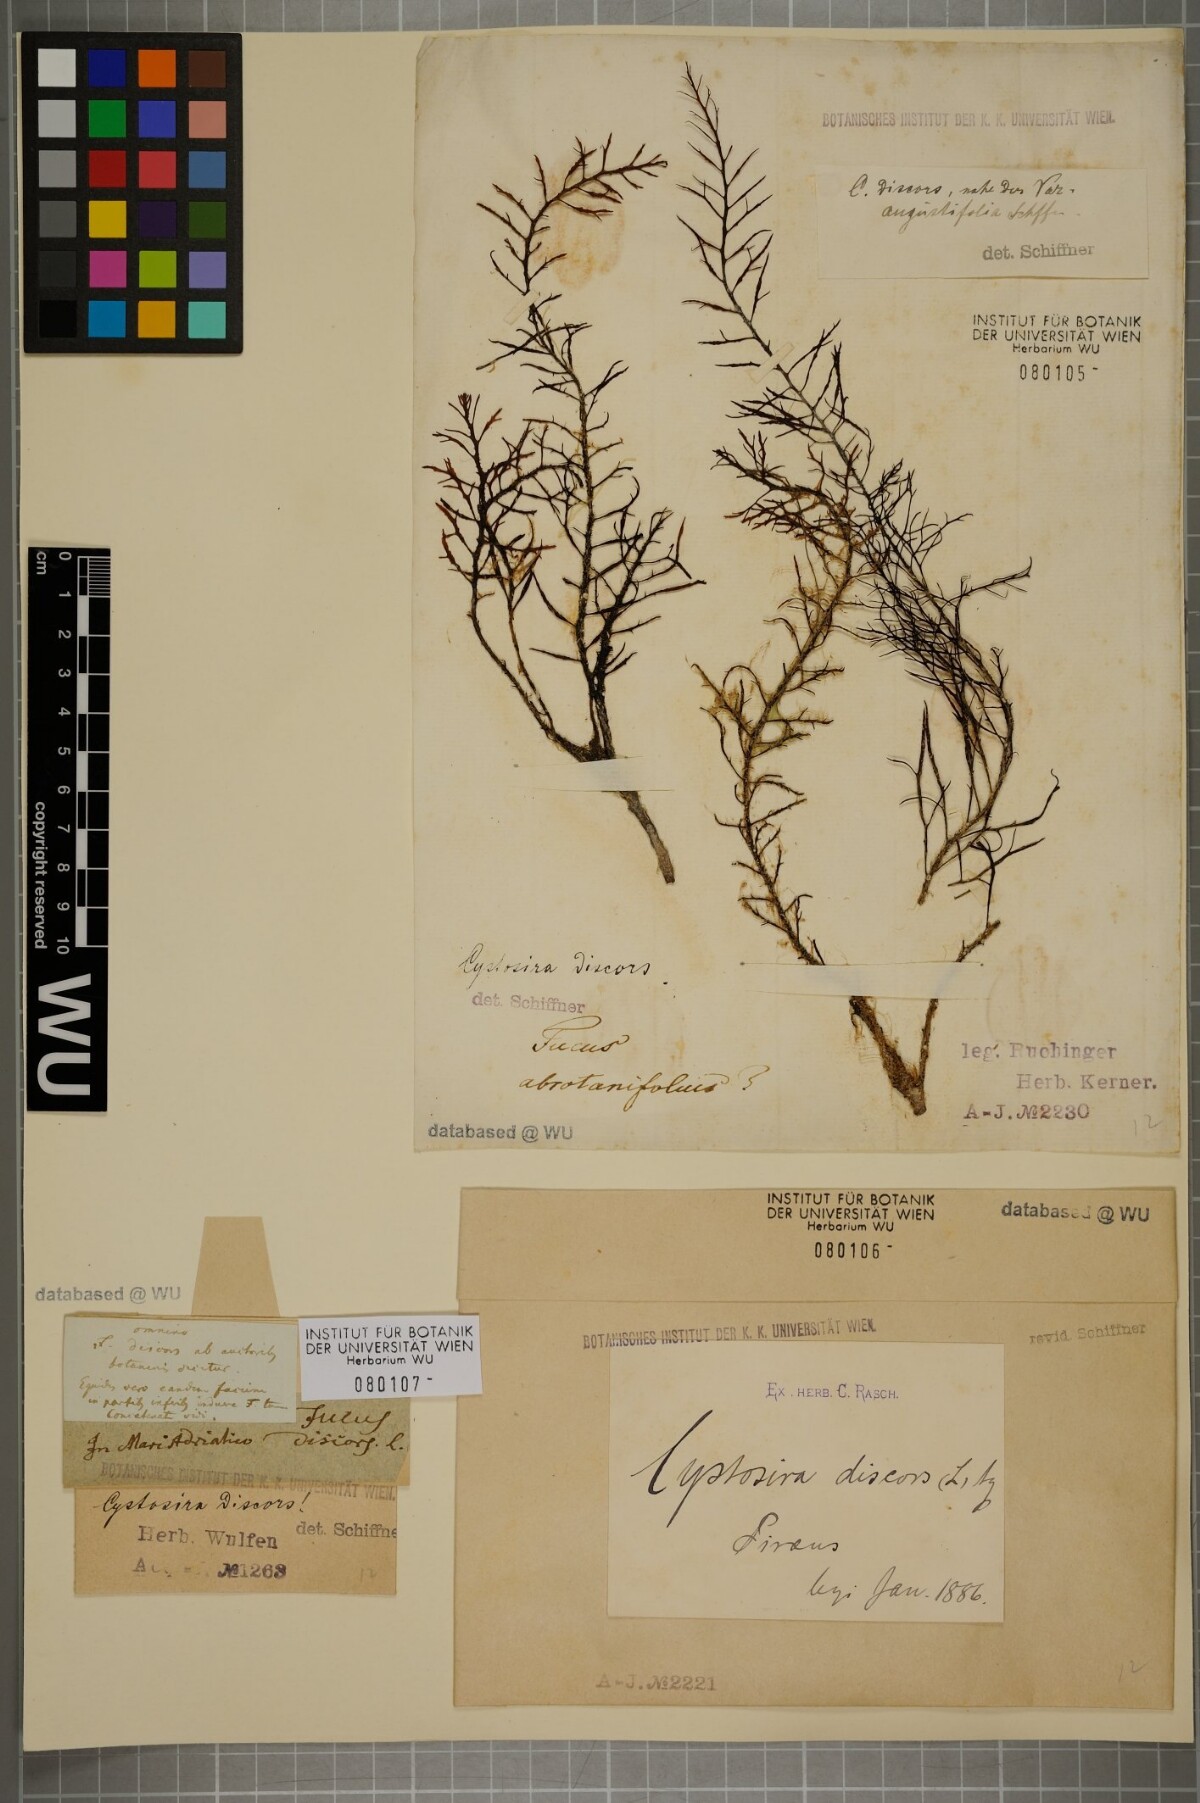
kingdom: Chromista
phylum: Ochrophyta
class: Phaeophyceae
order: Fucales
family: Sargassaceae
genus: Cystoseira
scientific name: Cystoseira foeniculacea
